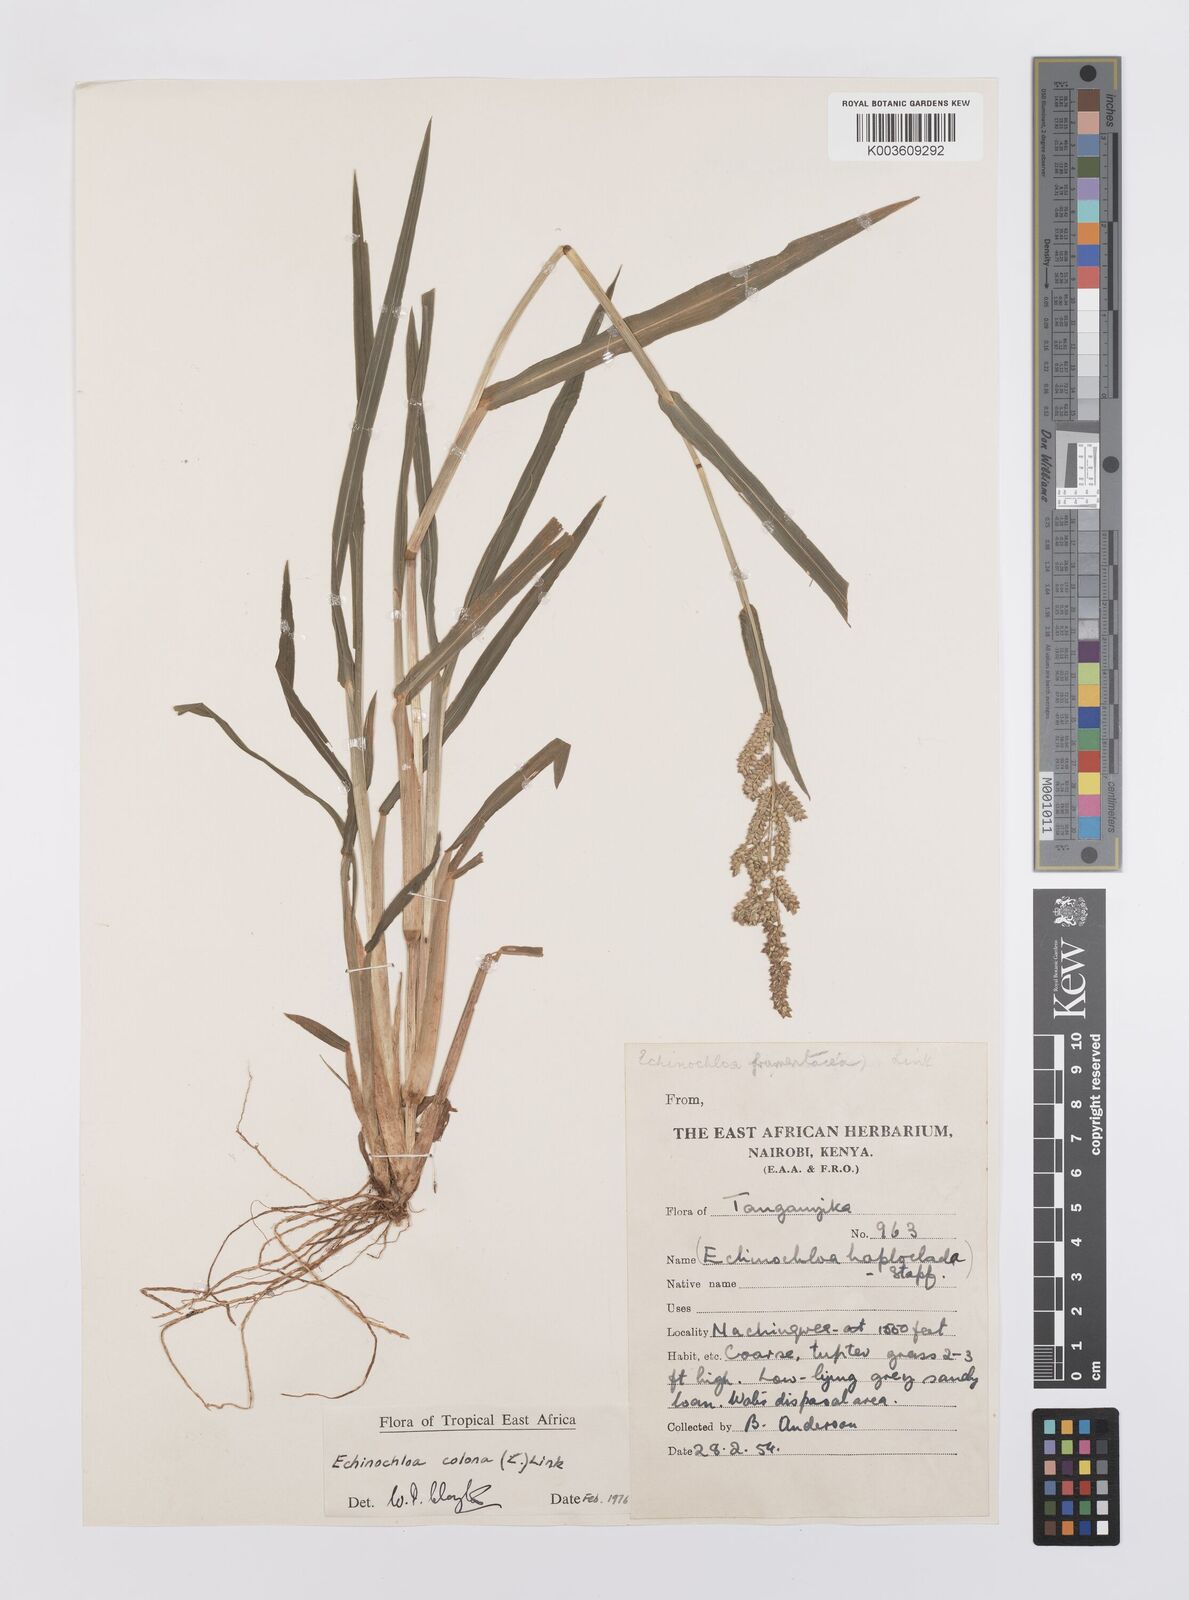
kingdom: Plantae
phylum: Tracheophyta
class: Liliopsida
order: Poales
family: Poaceae
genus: Echinochloa
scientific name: Echinochloa colonum
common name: Jungle rice
